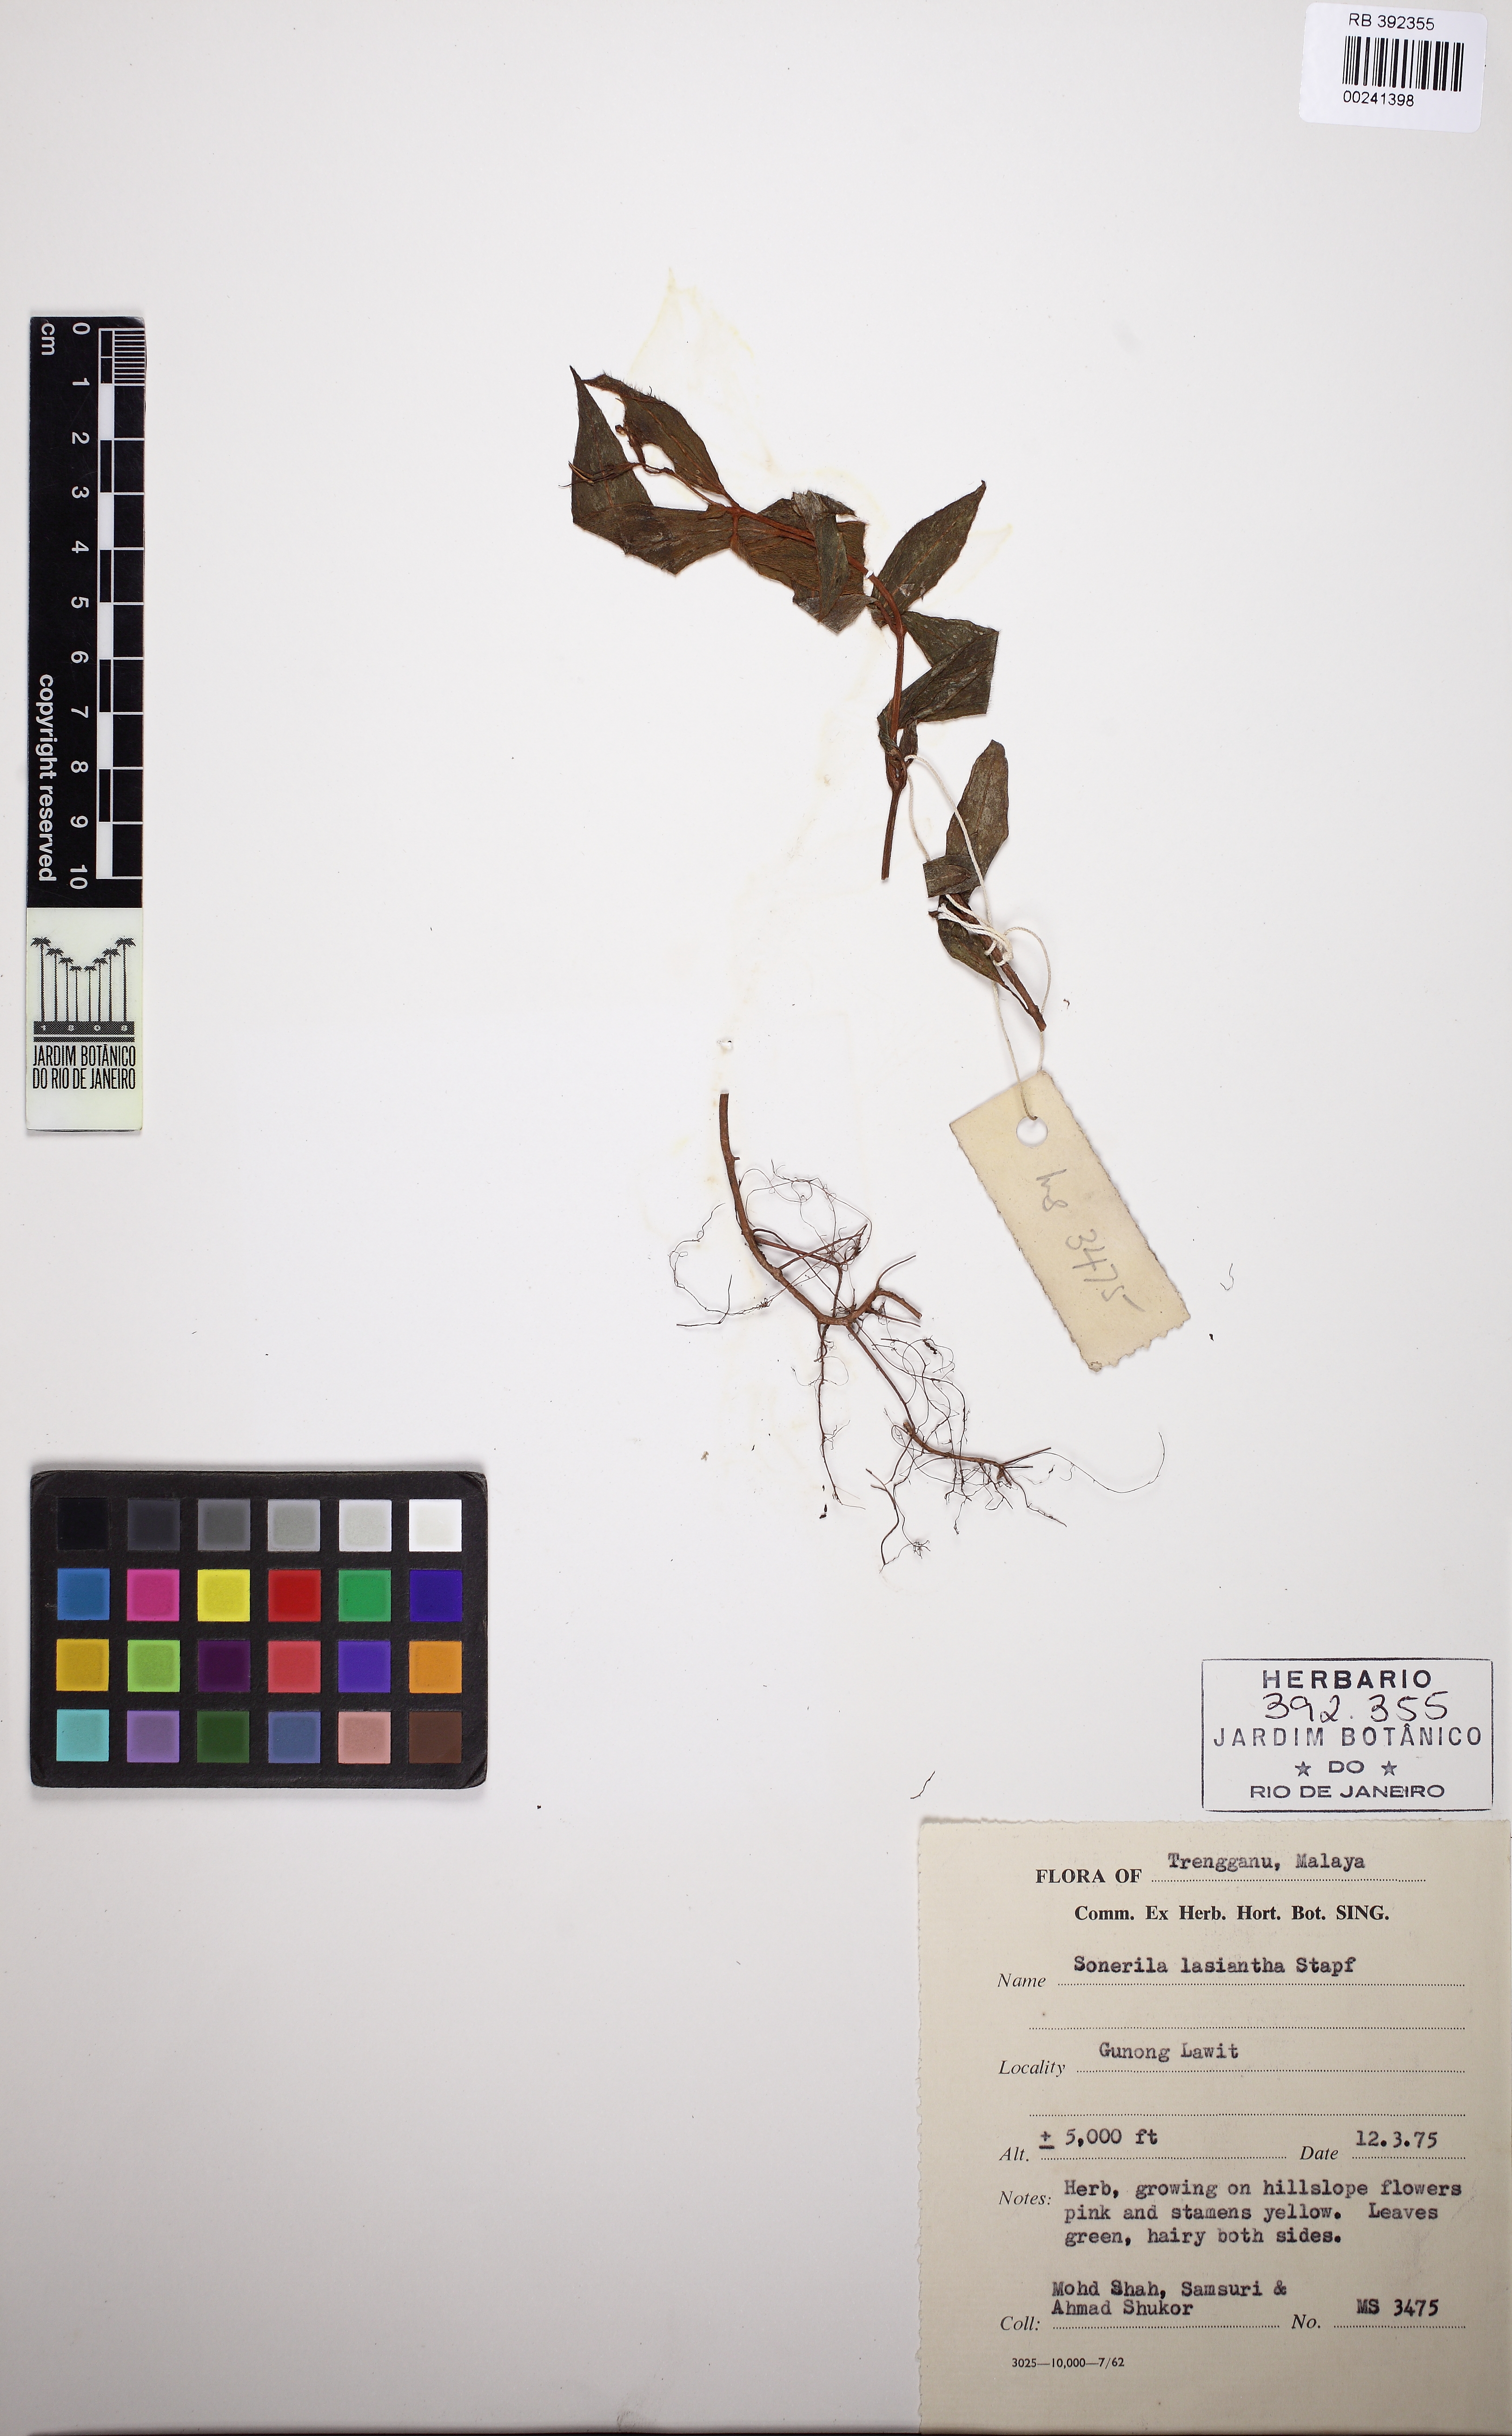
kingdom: Plantae
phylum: Tracheophyta
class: Magnoliopsida
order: Myrtales
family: Melastomataceae
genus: Sonerila
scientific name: Sonerila suffruticosa
